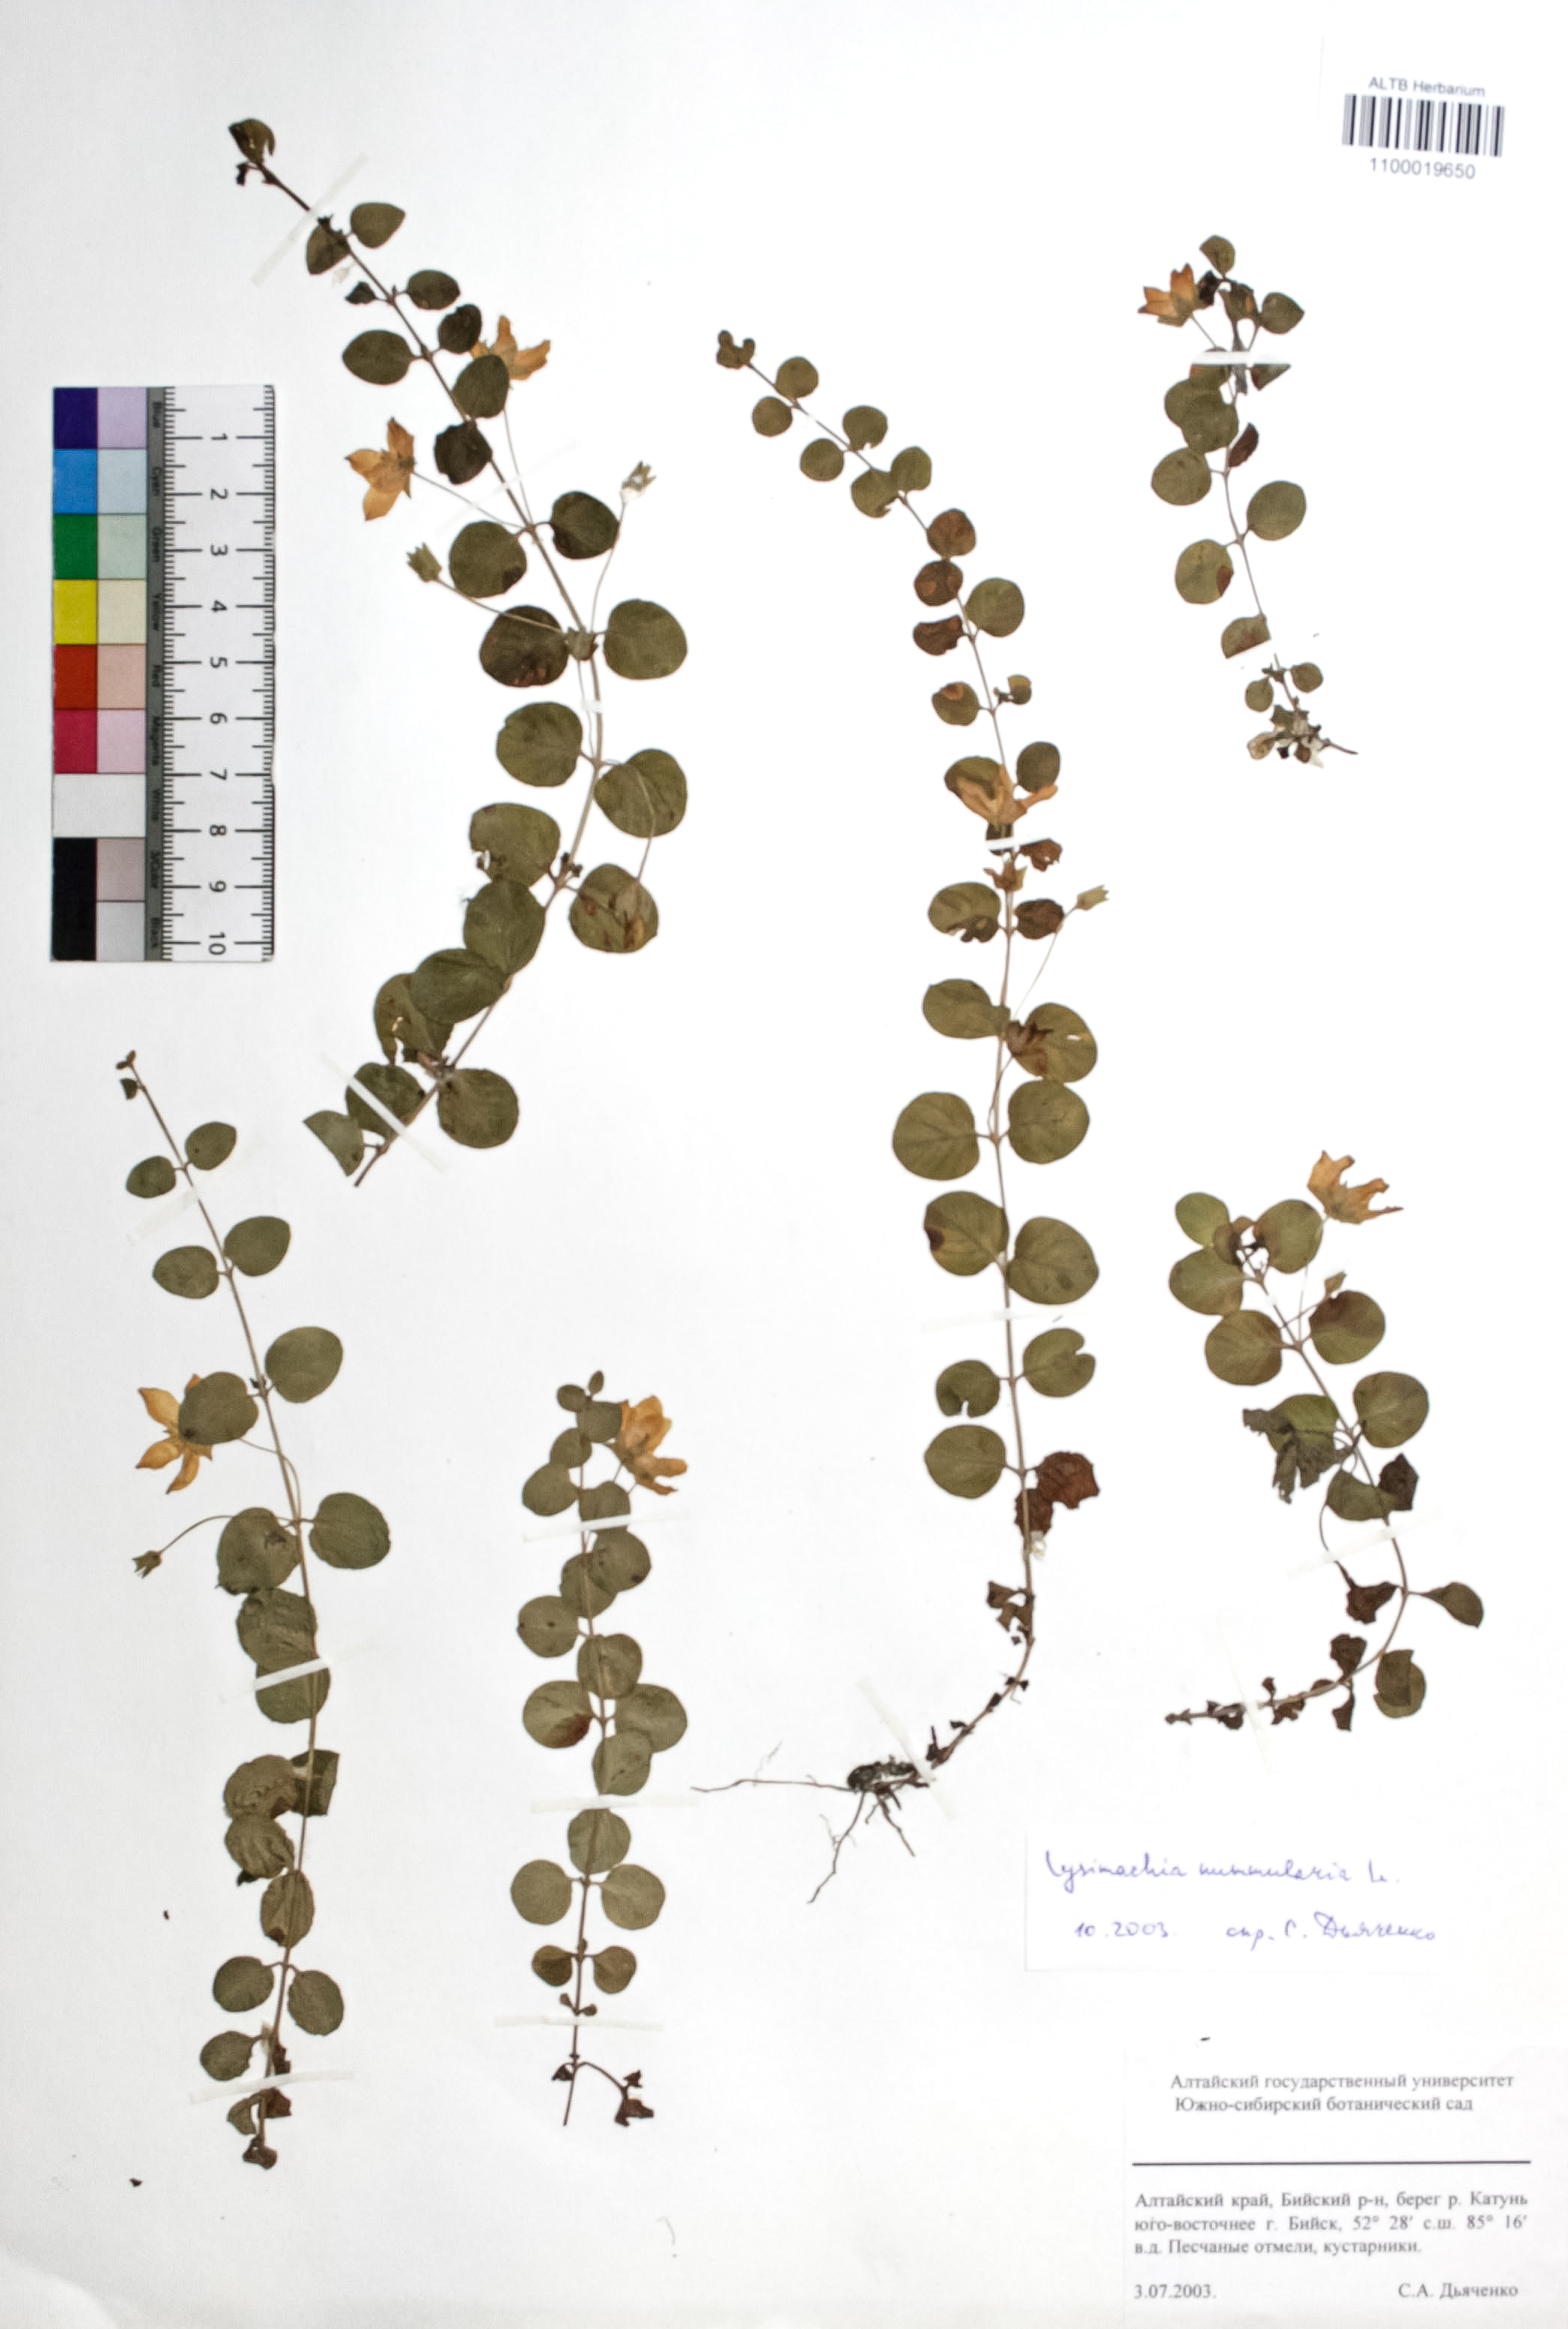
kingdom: Plantae
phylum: Tracheophyta
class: Magnoliopsida
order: Ericales
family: Primulaceae
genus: Lysimachia
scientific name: Lysimachia nummularia
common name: Moneywort
